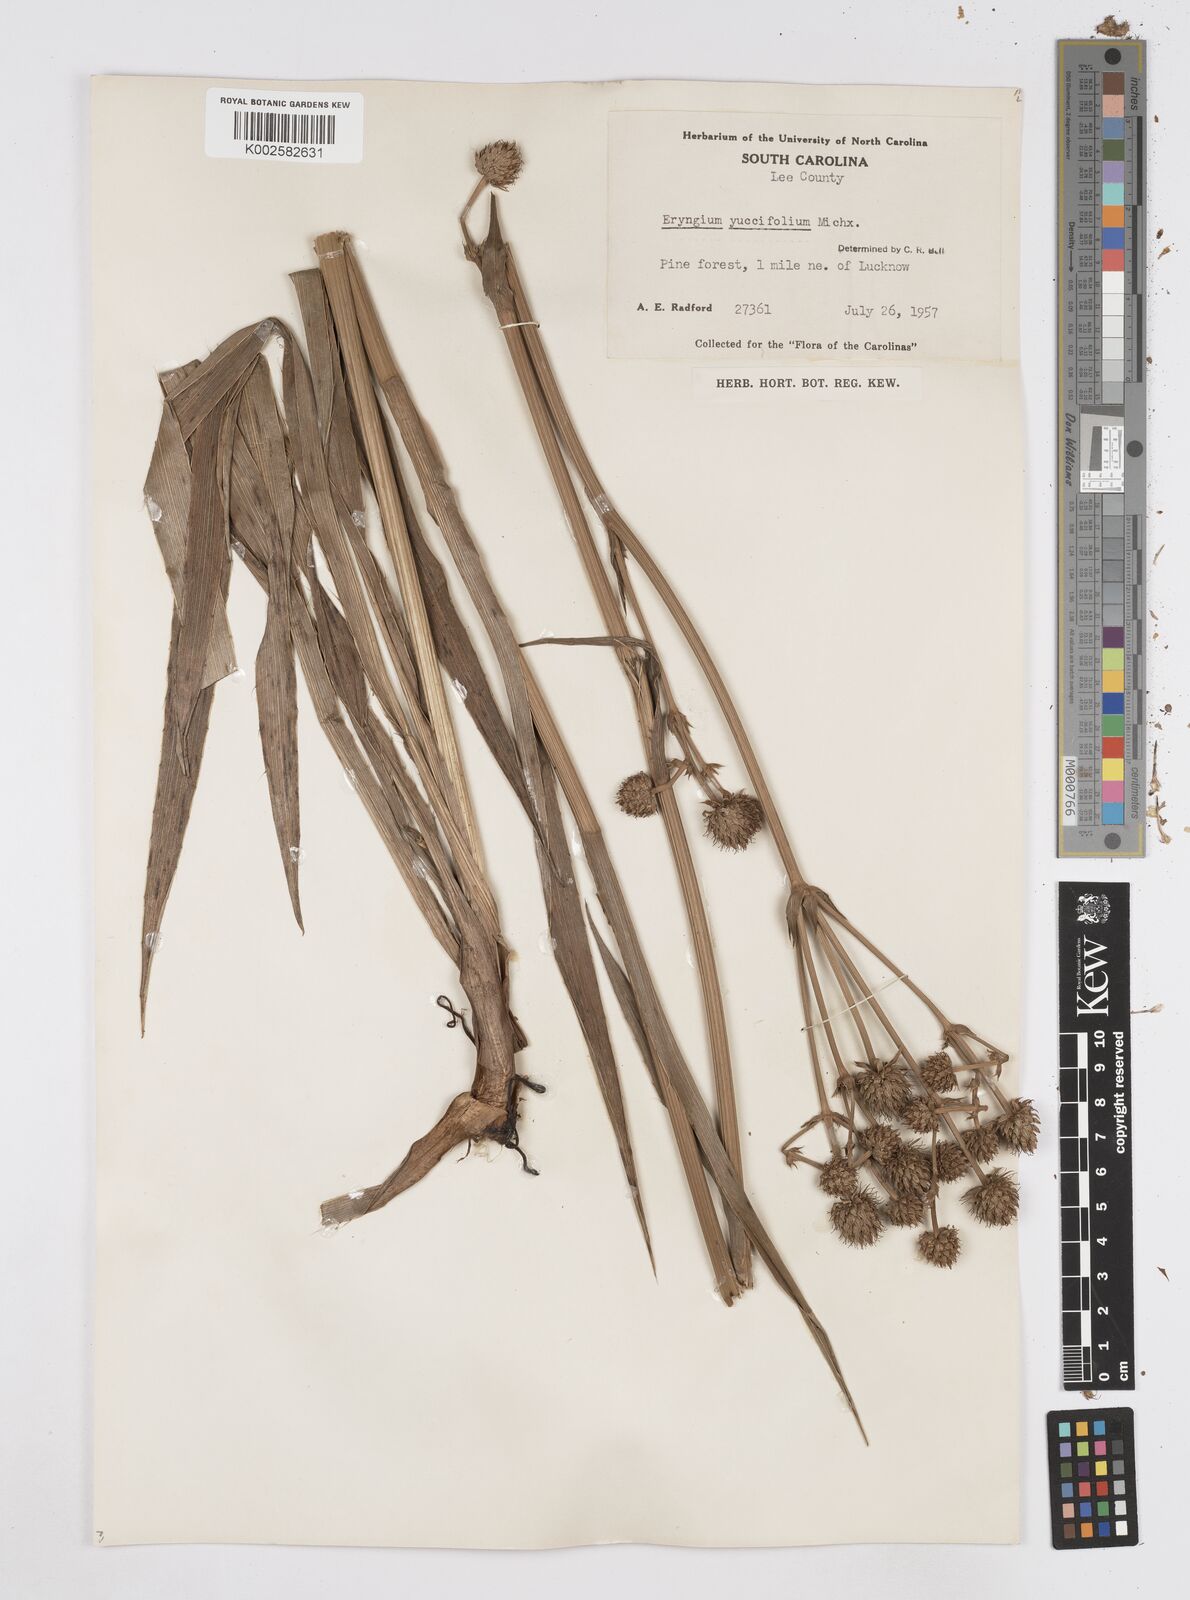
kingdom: Plantae
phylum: Tracheophyta
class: Magnoliopsida
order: Apiales
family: Apiaceae
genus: Eryngium
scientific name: Eryngium yuccifolium
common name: Button eryngo
